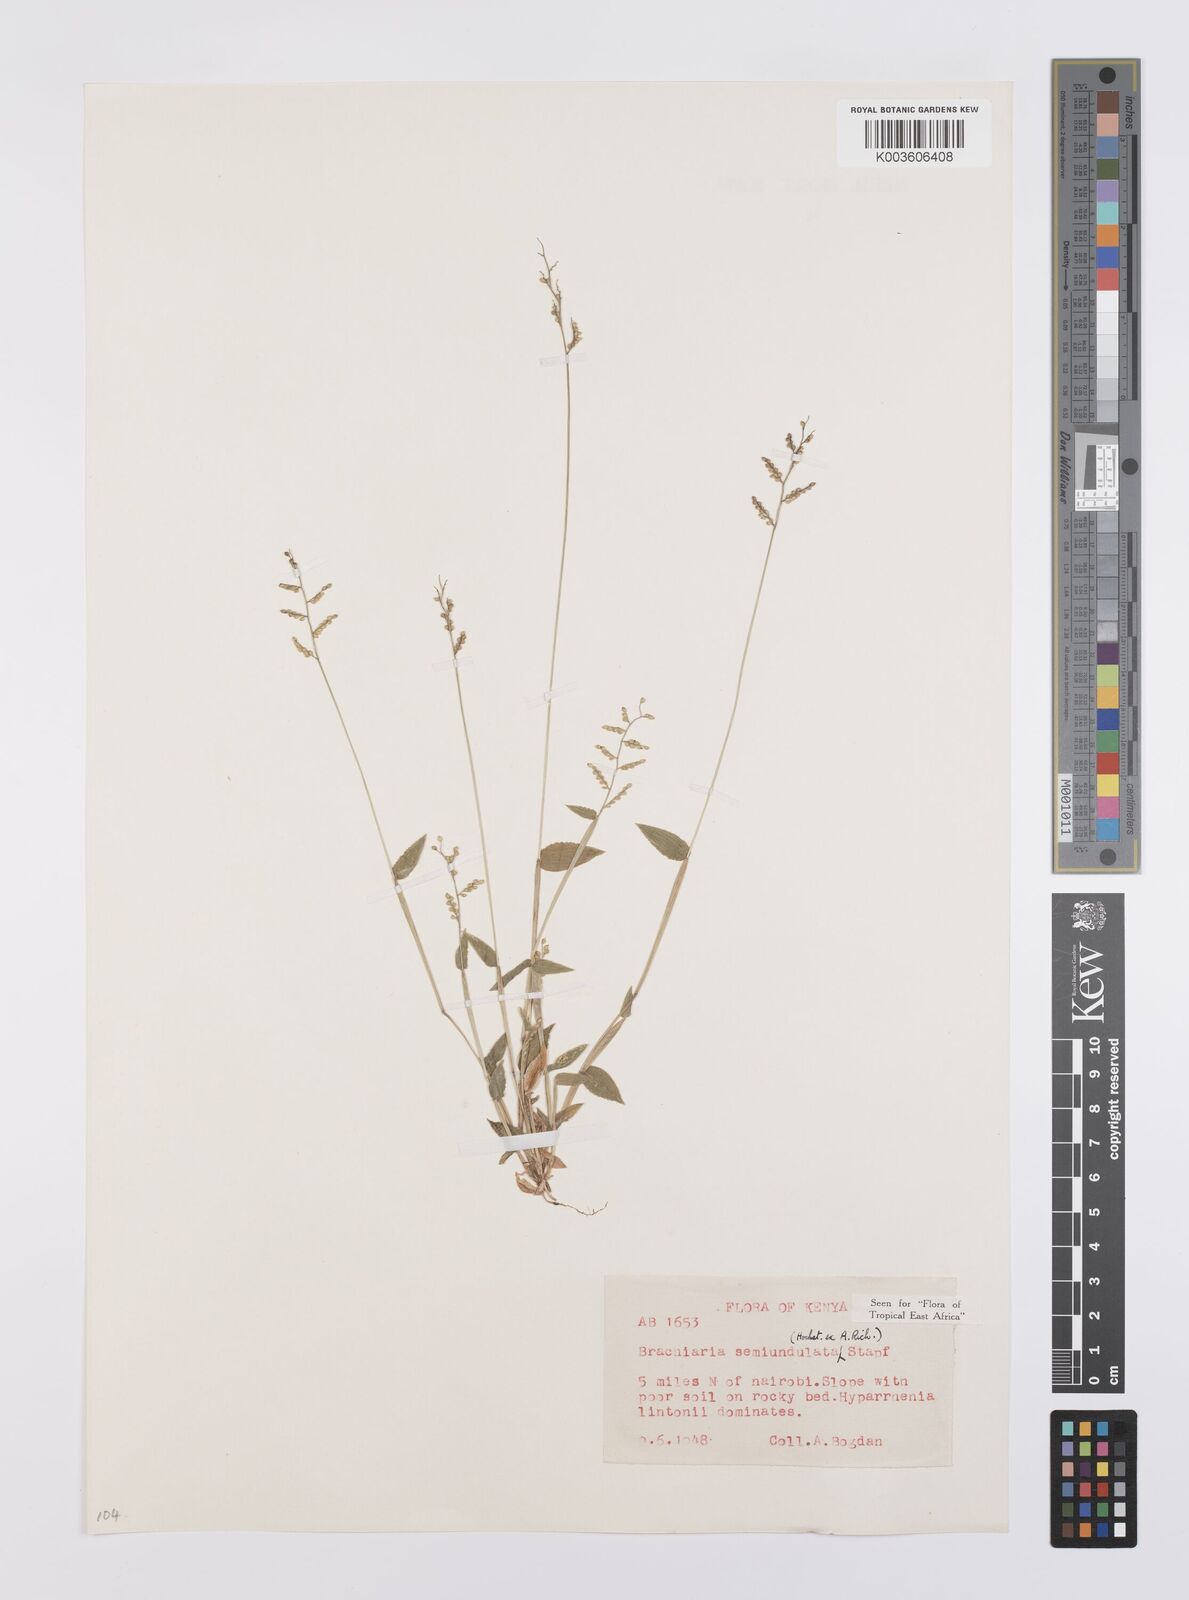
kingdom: Plantae
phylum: Tracheophyta
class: Liliopsida
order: Poales
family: Poaceae
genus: Urochloa
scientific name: Urochloa semiundulata
